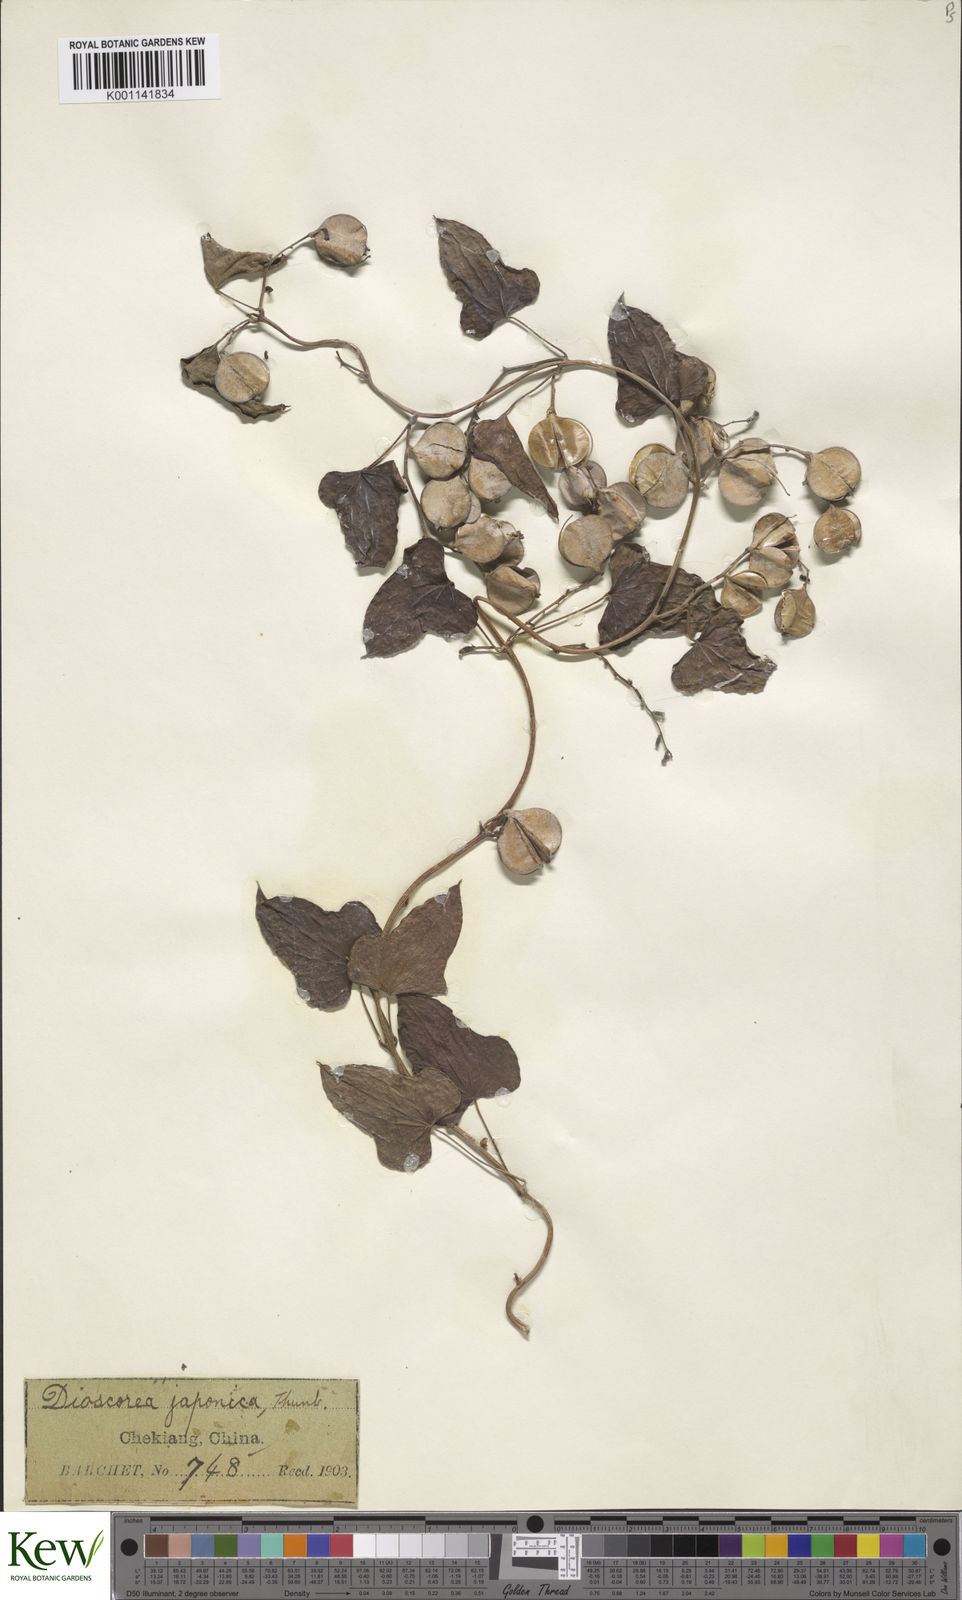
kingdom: Plantae
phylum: Tracheophyta
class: Liliopsida
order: Dioscoreales
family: Dioscoreaceae
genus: Dioscorea
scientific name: Dioscorea japonica
